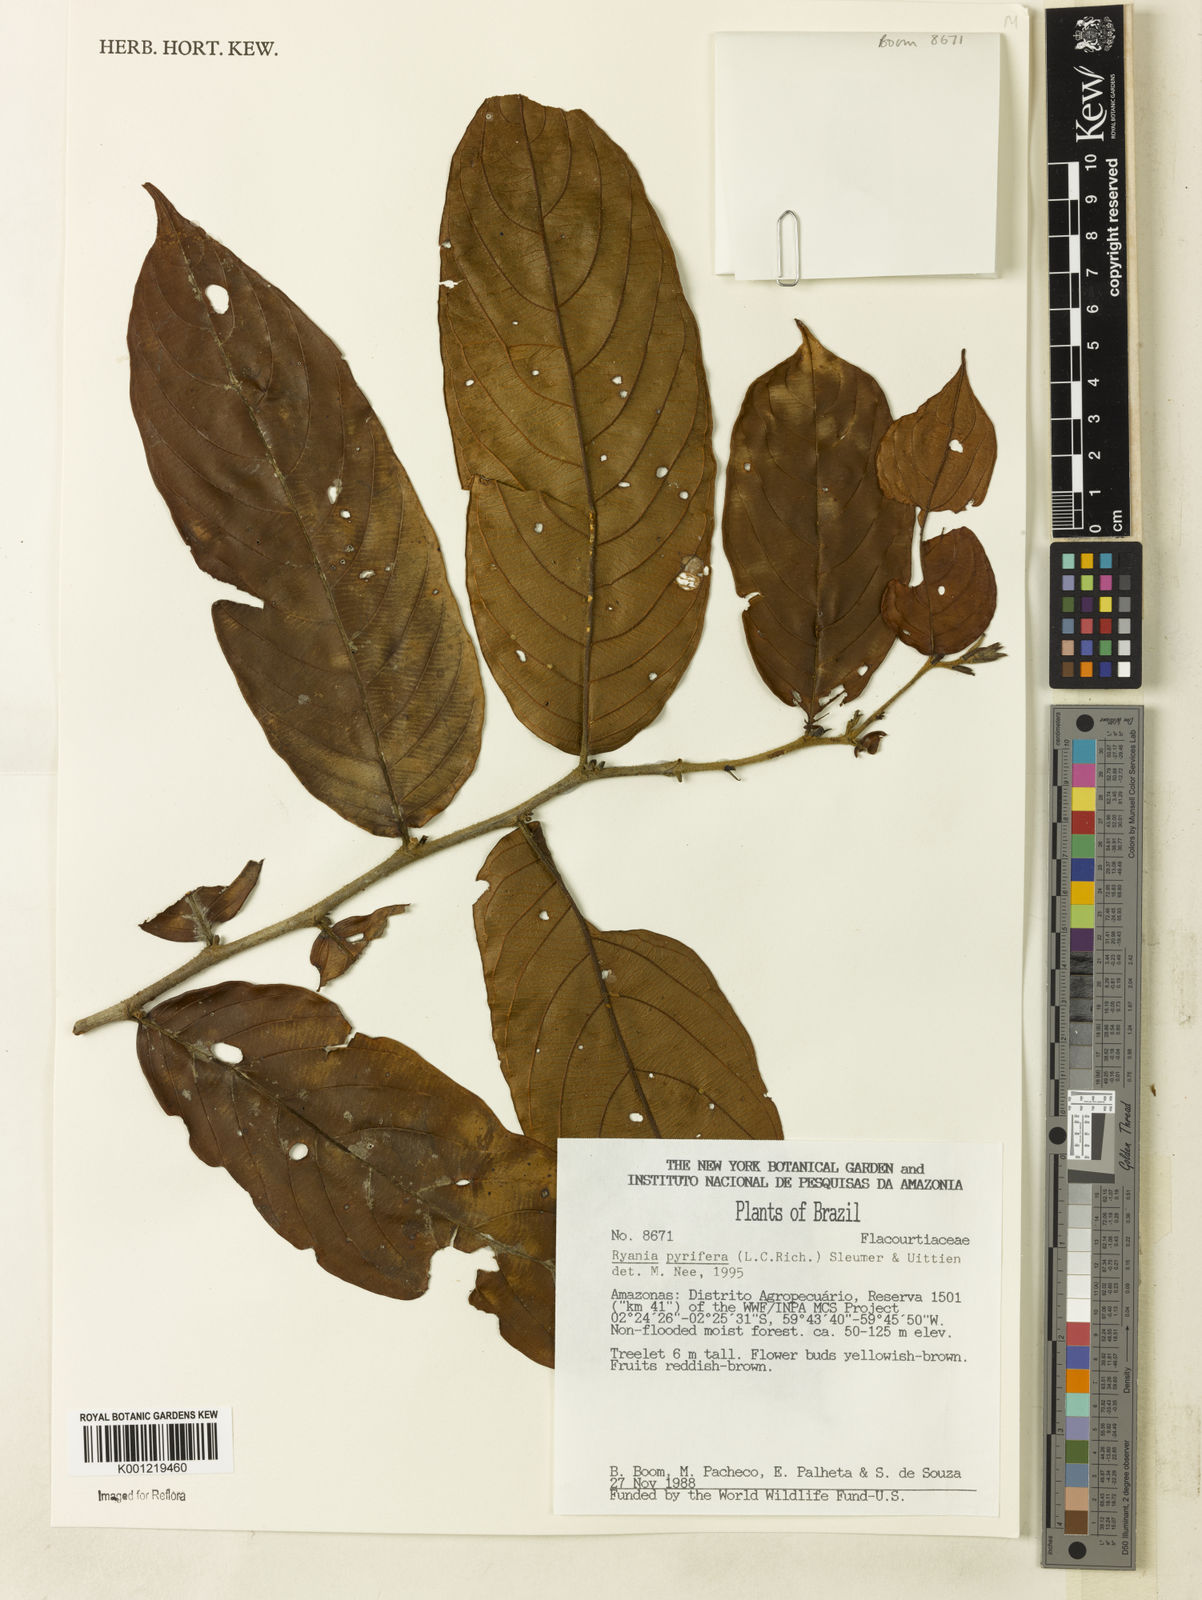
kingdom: Plantae
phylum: Tracheophyta
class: Magnoliopsida
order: Malpighiales
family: Salicaceae
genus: Ryania
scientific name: Ryania pyrifera
